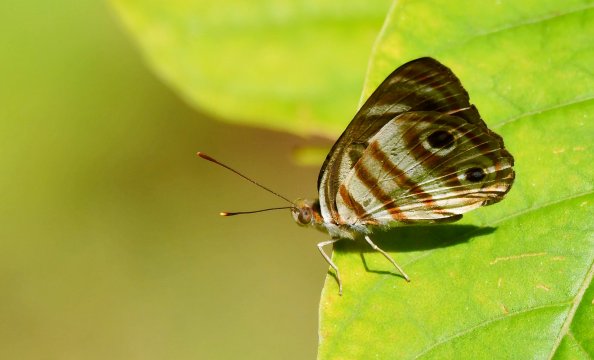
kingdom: Animalia
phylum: Arthropoda
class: Insecta
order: Lepidoptera
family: Nymphalidae
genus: Dynamine
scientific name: Dynamine mylitta
